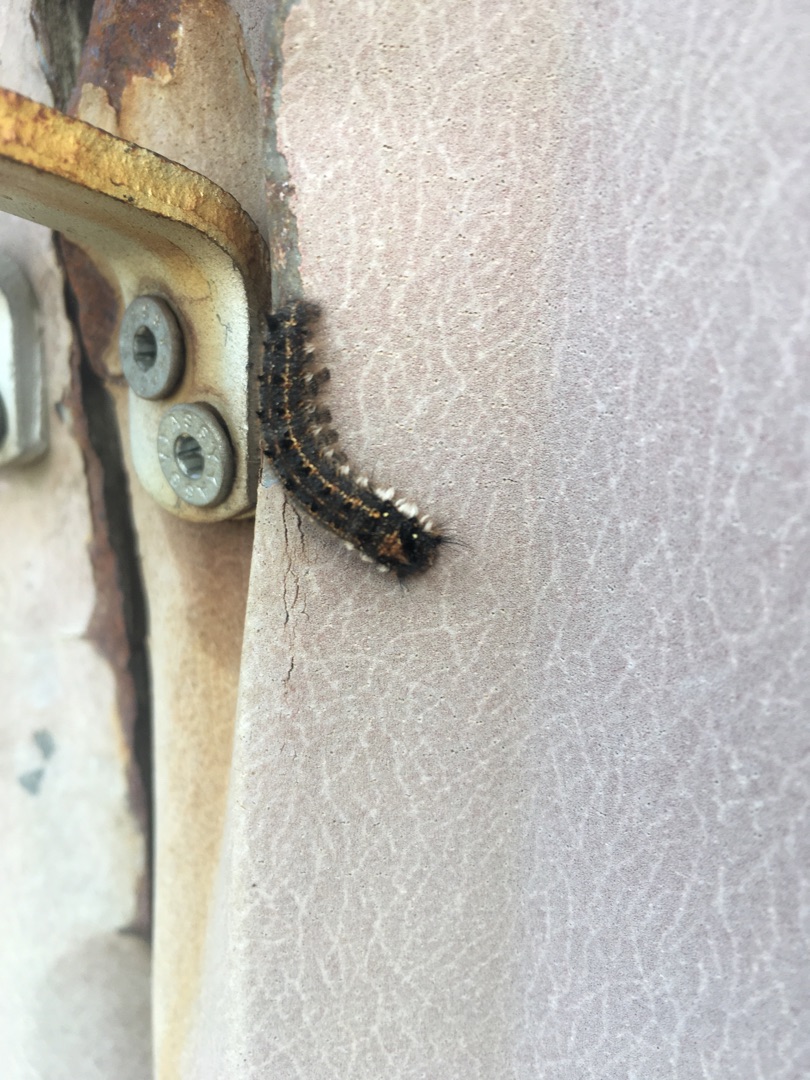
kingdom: Animalia
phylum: Arthropoda
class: Insecta
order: Lepidoptera
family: Lasiocampidae
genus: Euthrix
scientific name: Euthrix potatoria
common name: Græsspinder
